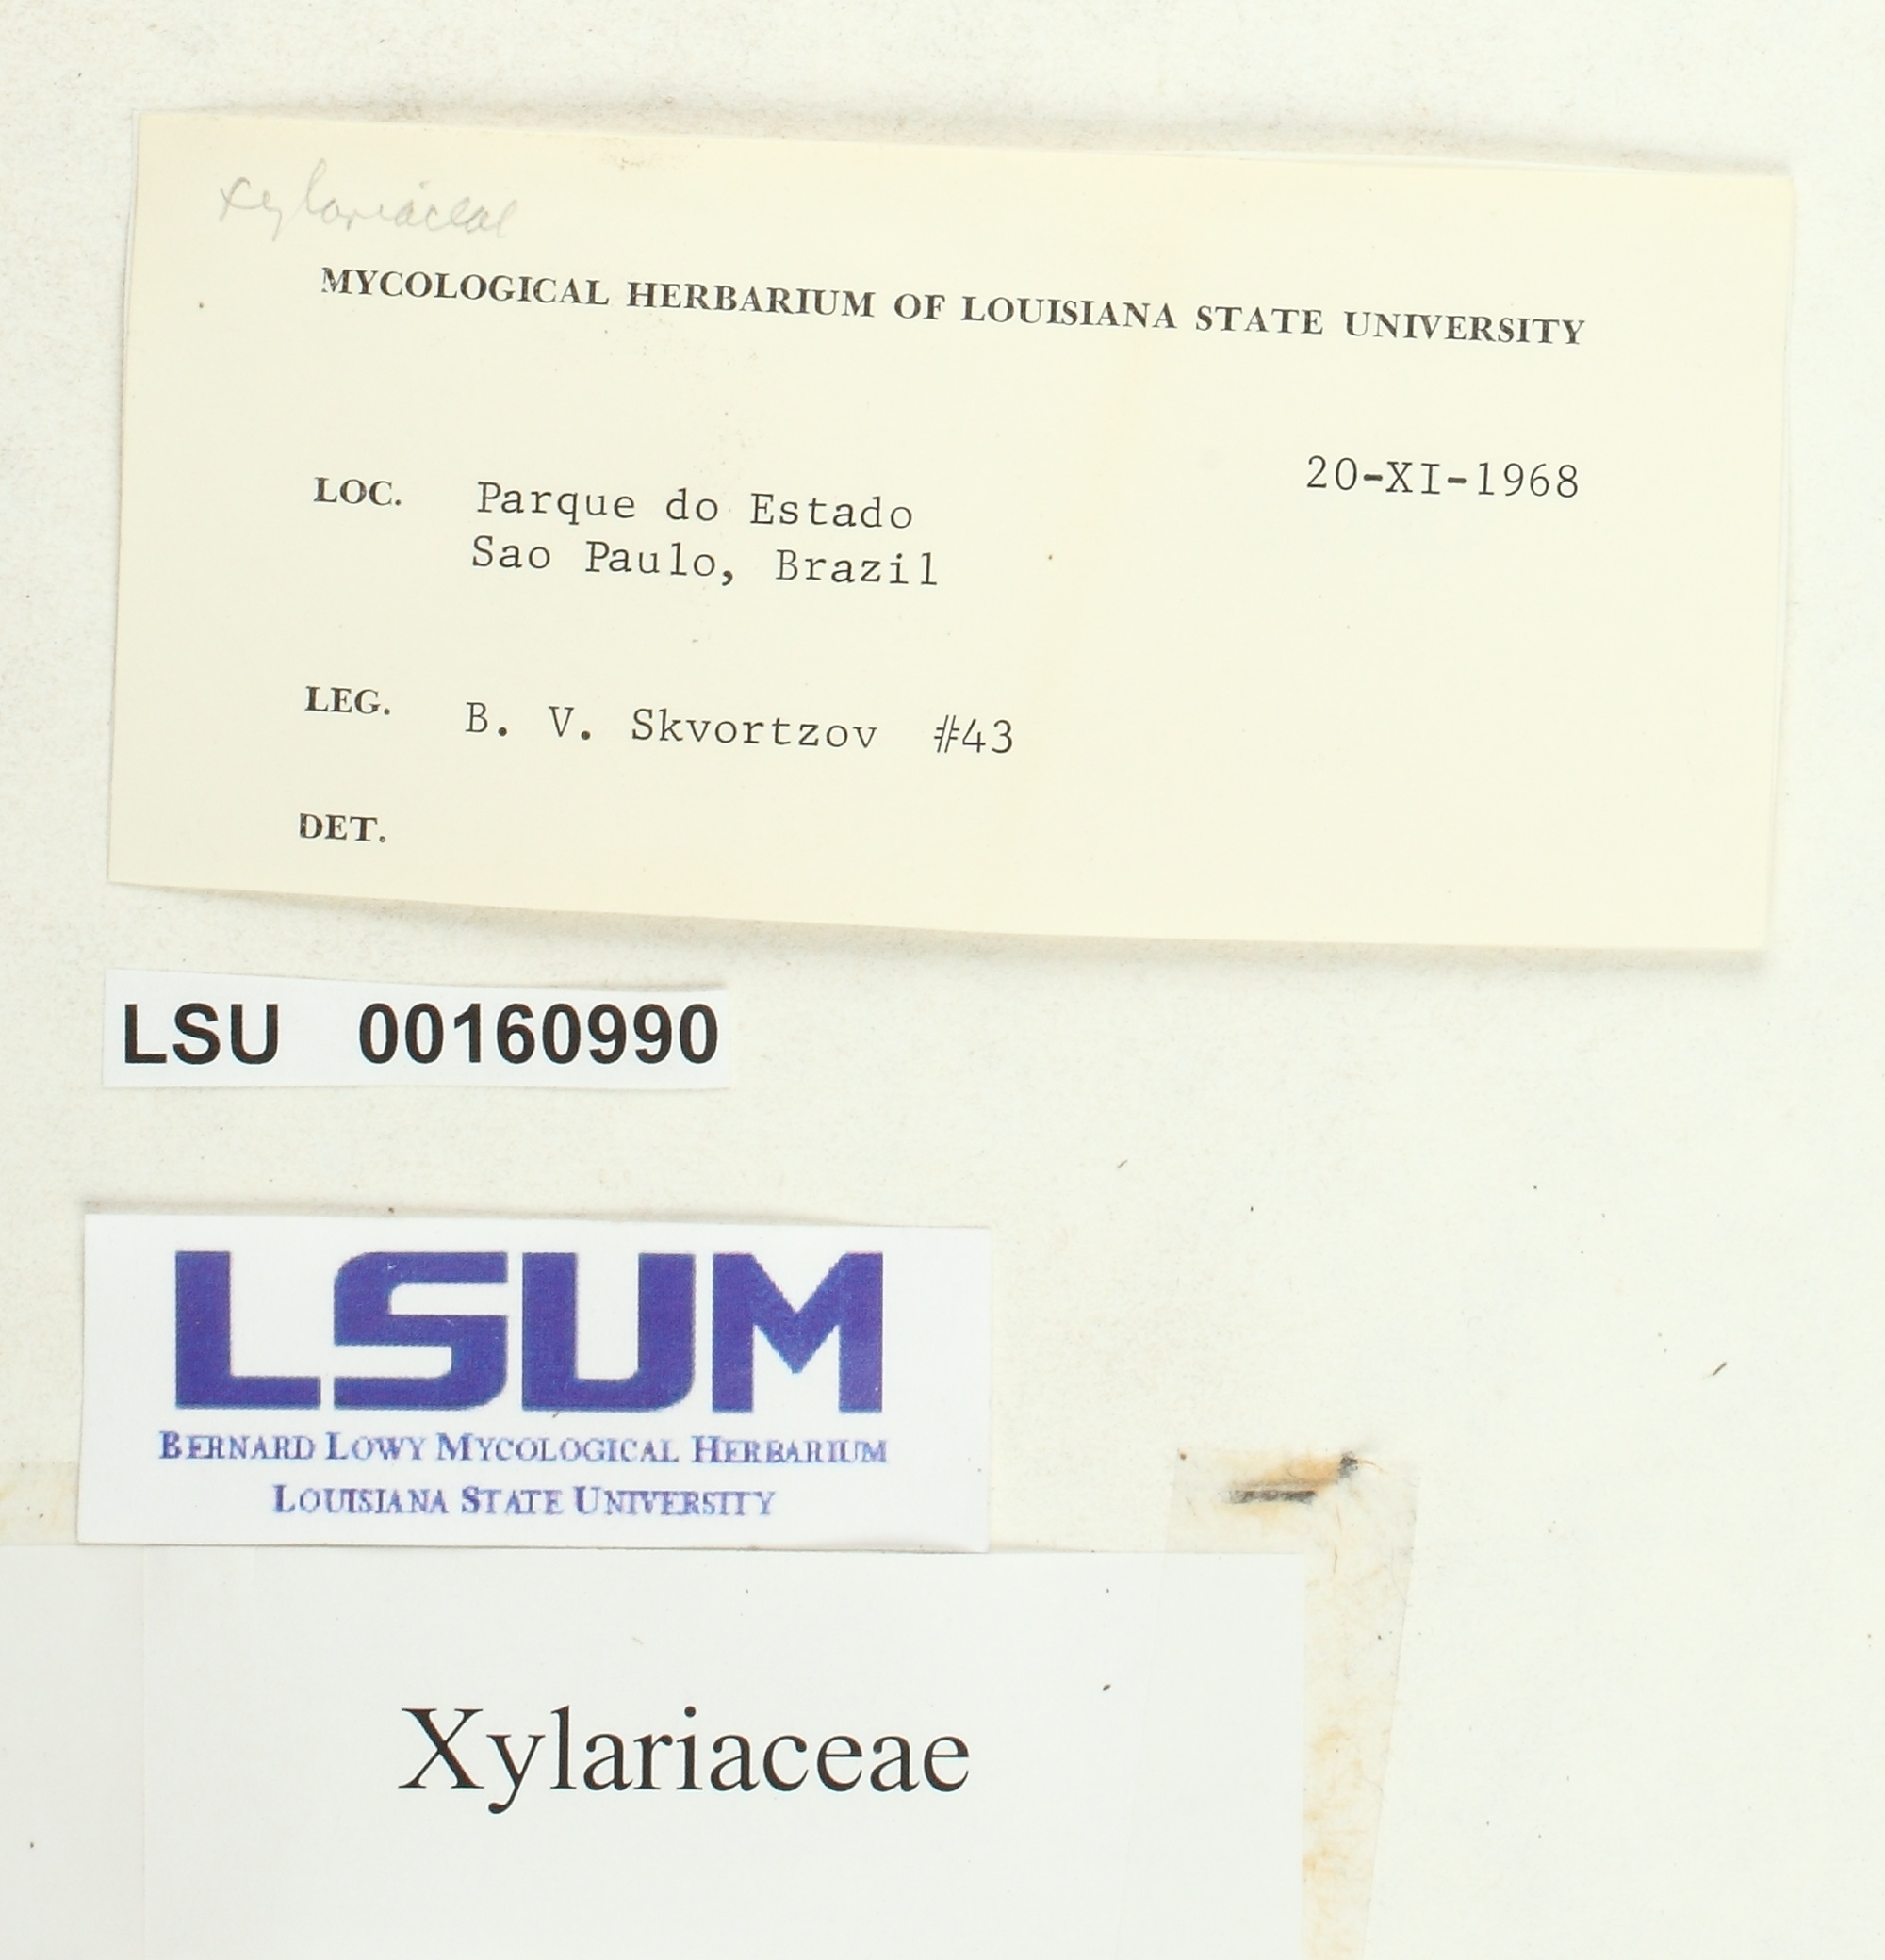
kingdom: Fungi
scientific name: Fungi
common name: Fungi
